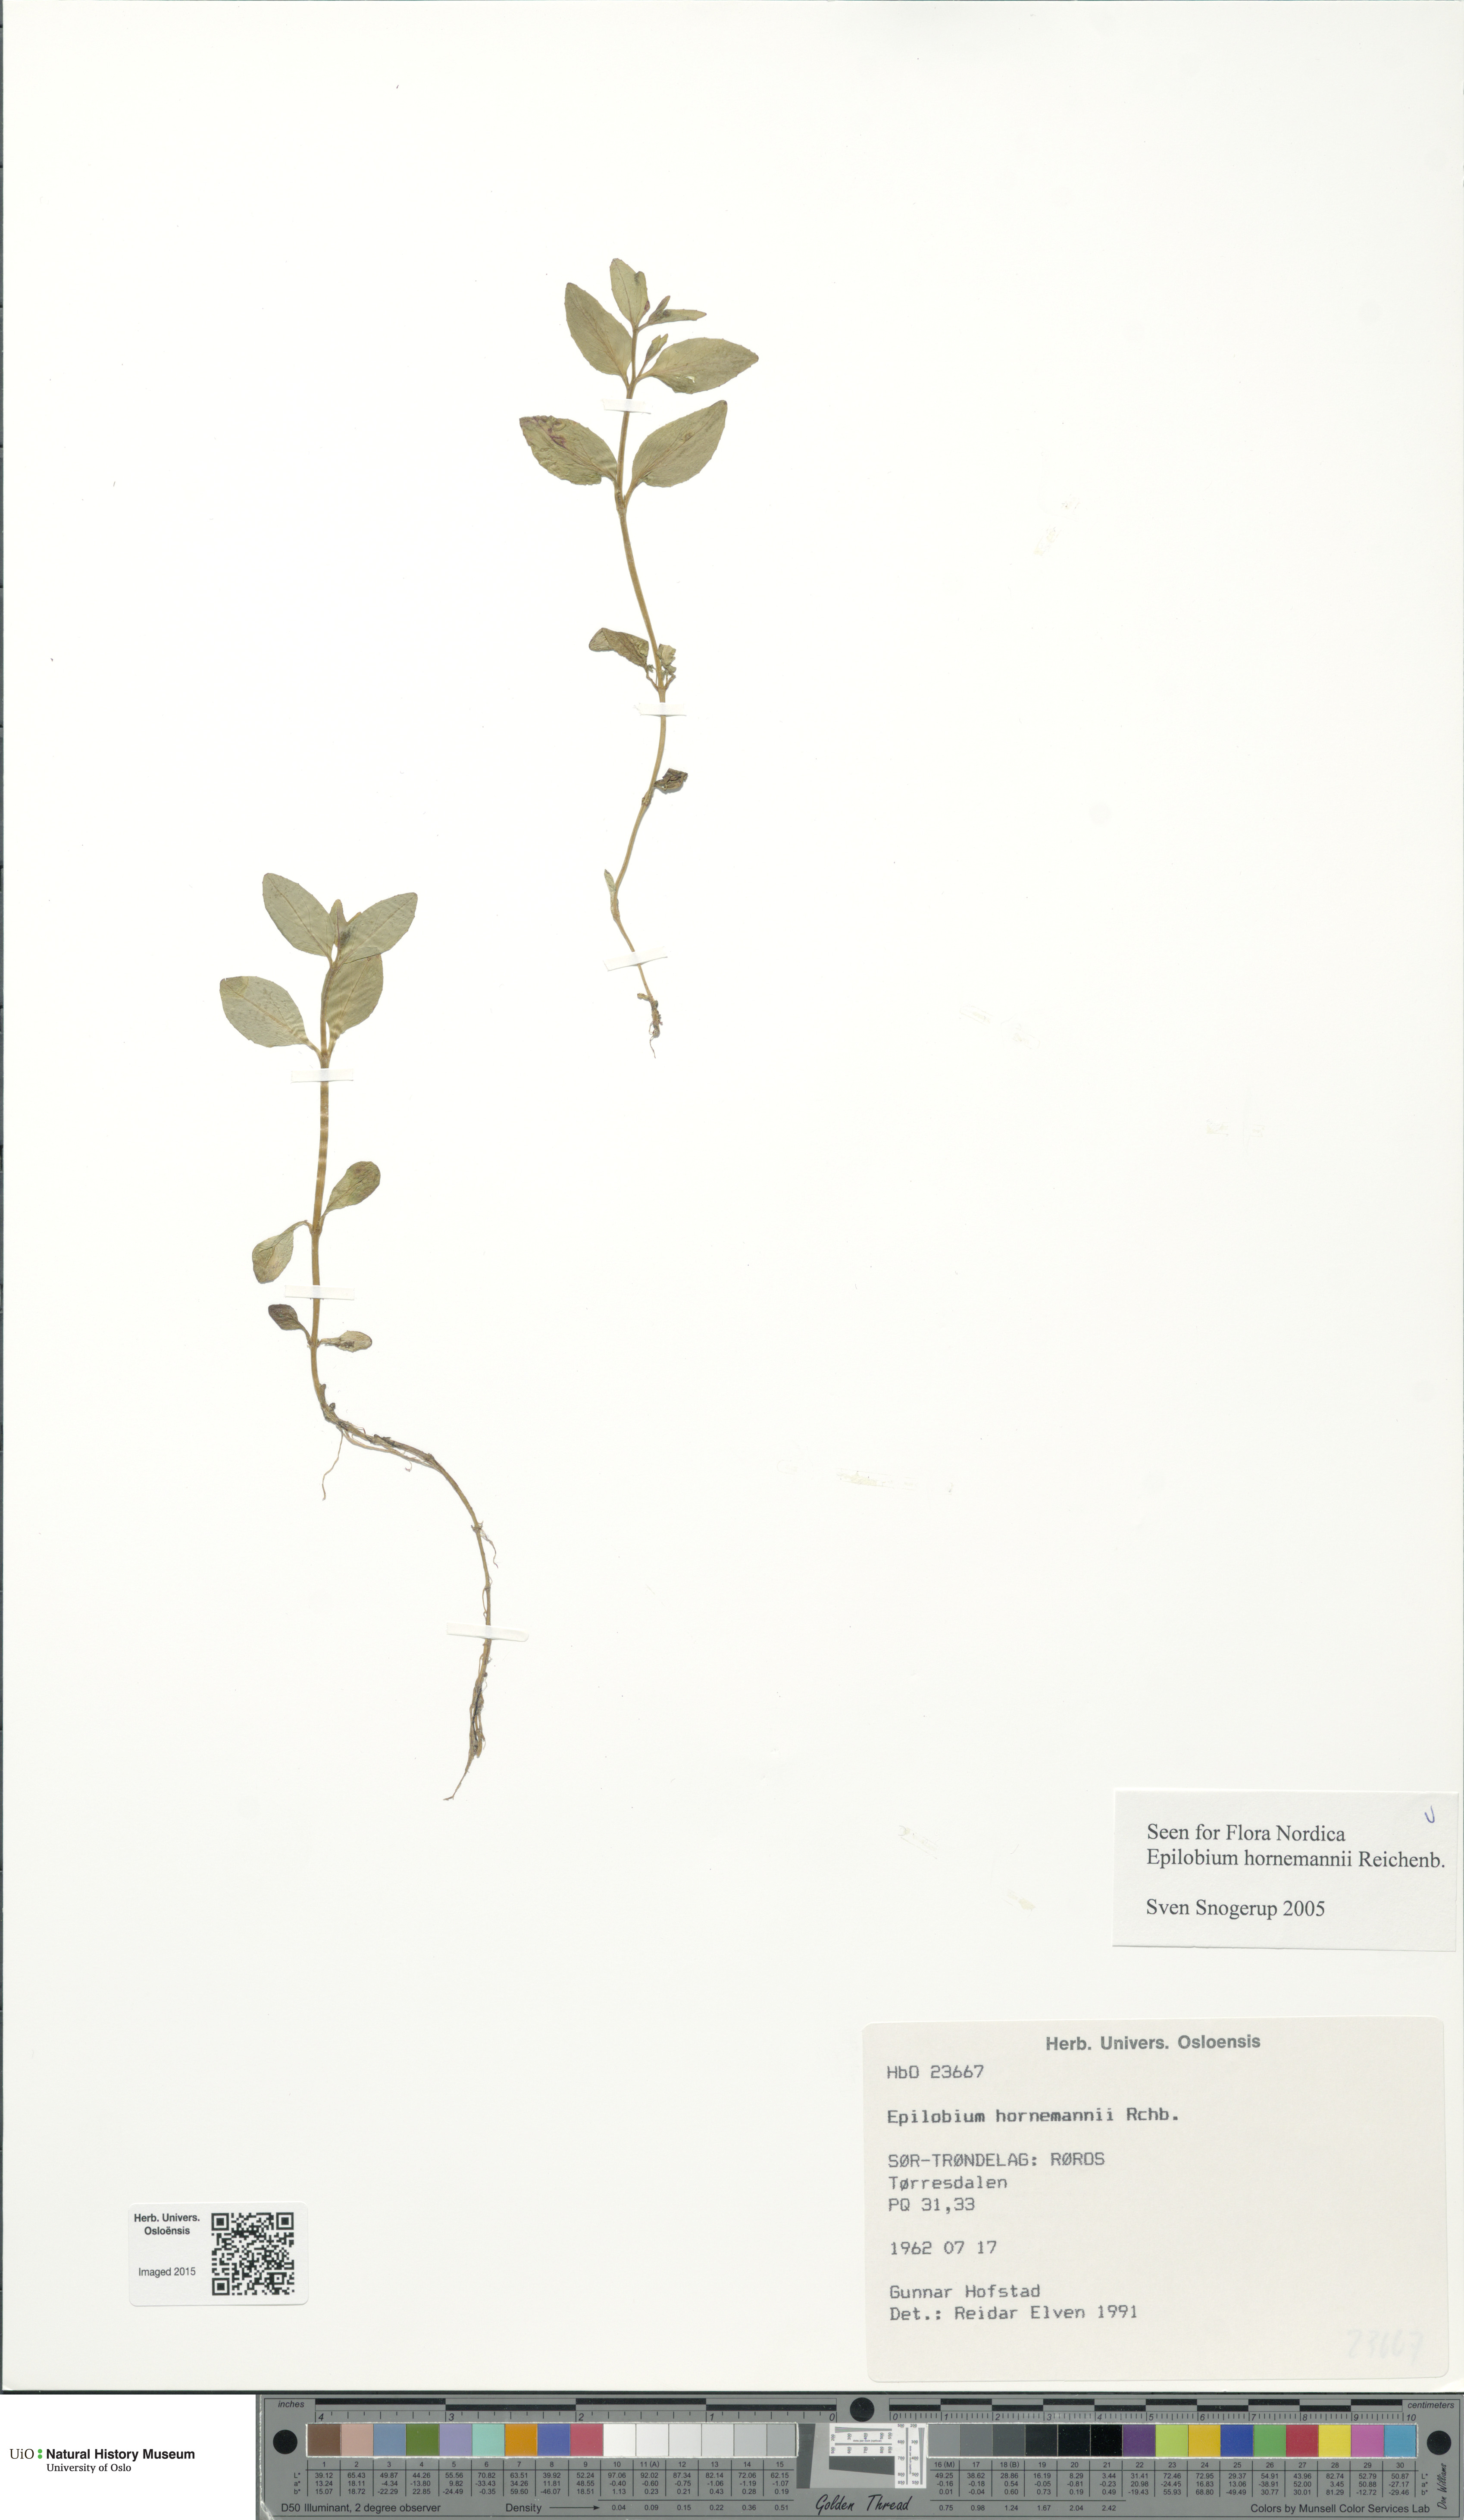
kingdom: Plantae
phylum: Tracheophyta
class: Magnoliopsida
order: Myrtales
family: Onagraceae
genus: Epilobium
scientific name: Epilobium hornemannii
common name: Hornemann's willowherb
